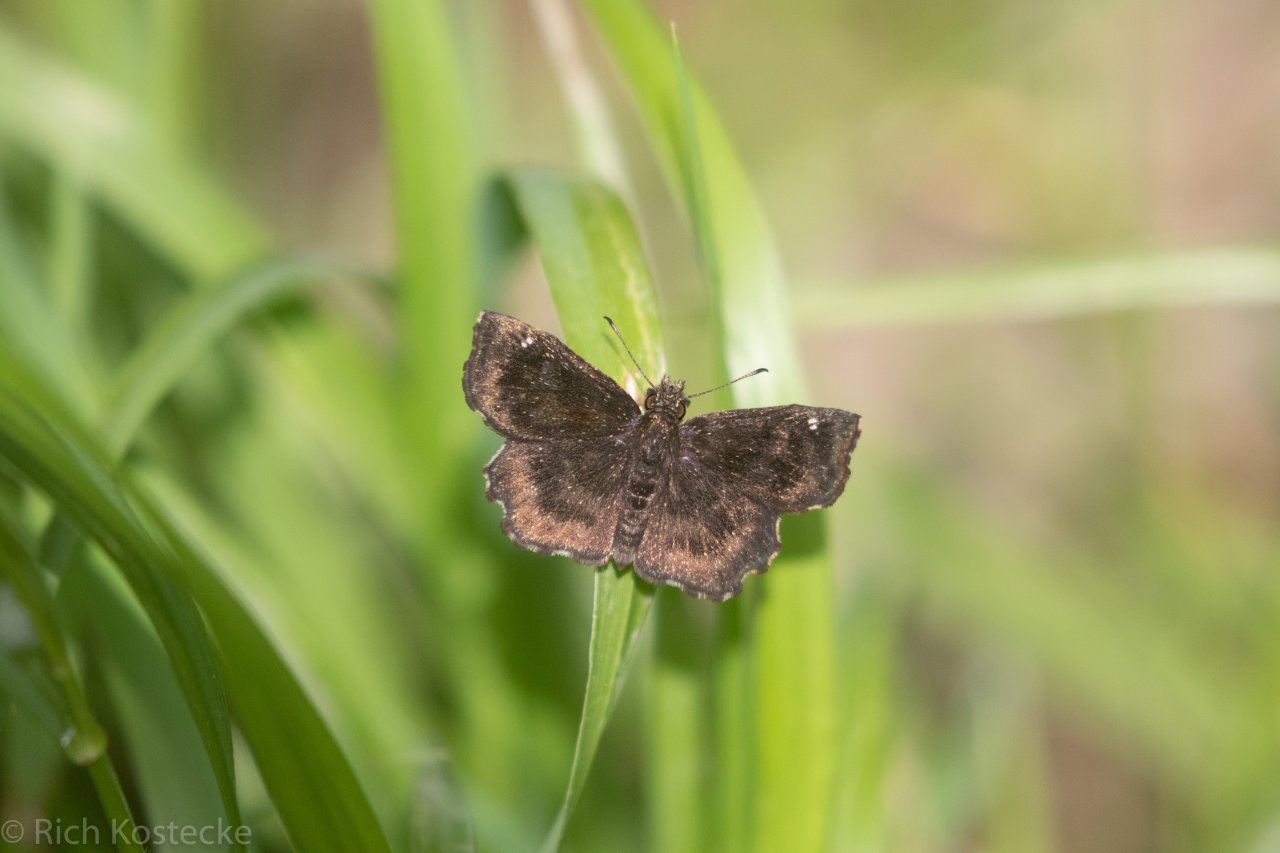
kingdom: Animalia
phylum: Arthropoda
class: Insecta
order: Lepidoptera
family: Hesperiidae
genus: Staphylus
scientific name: Staphylus mazans
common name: Hayhurst's Scallopwing
